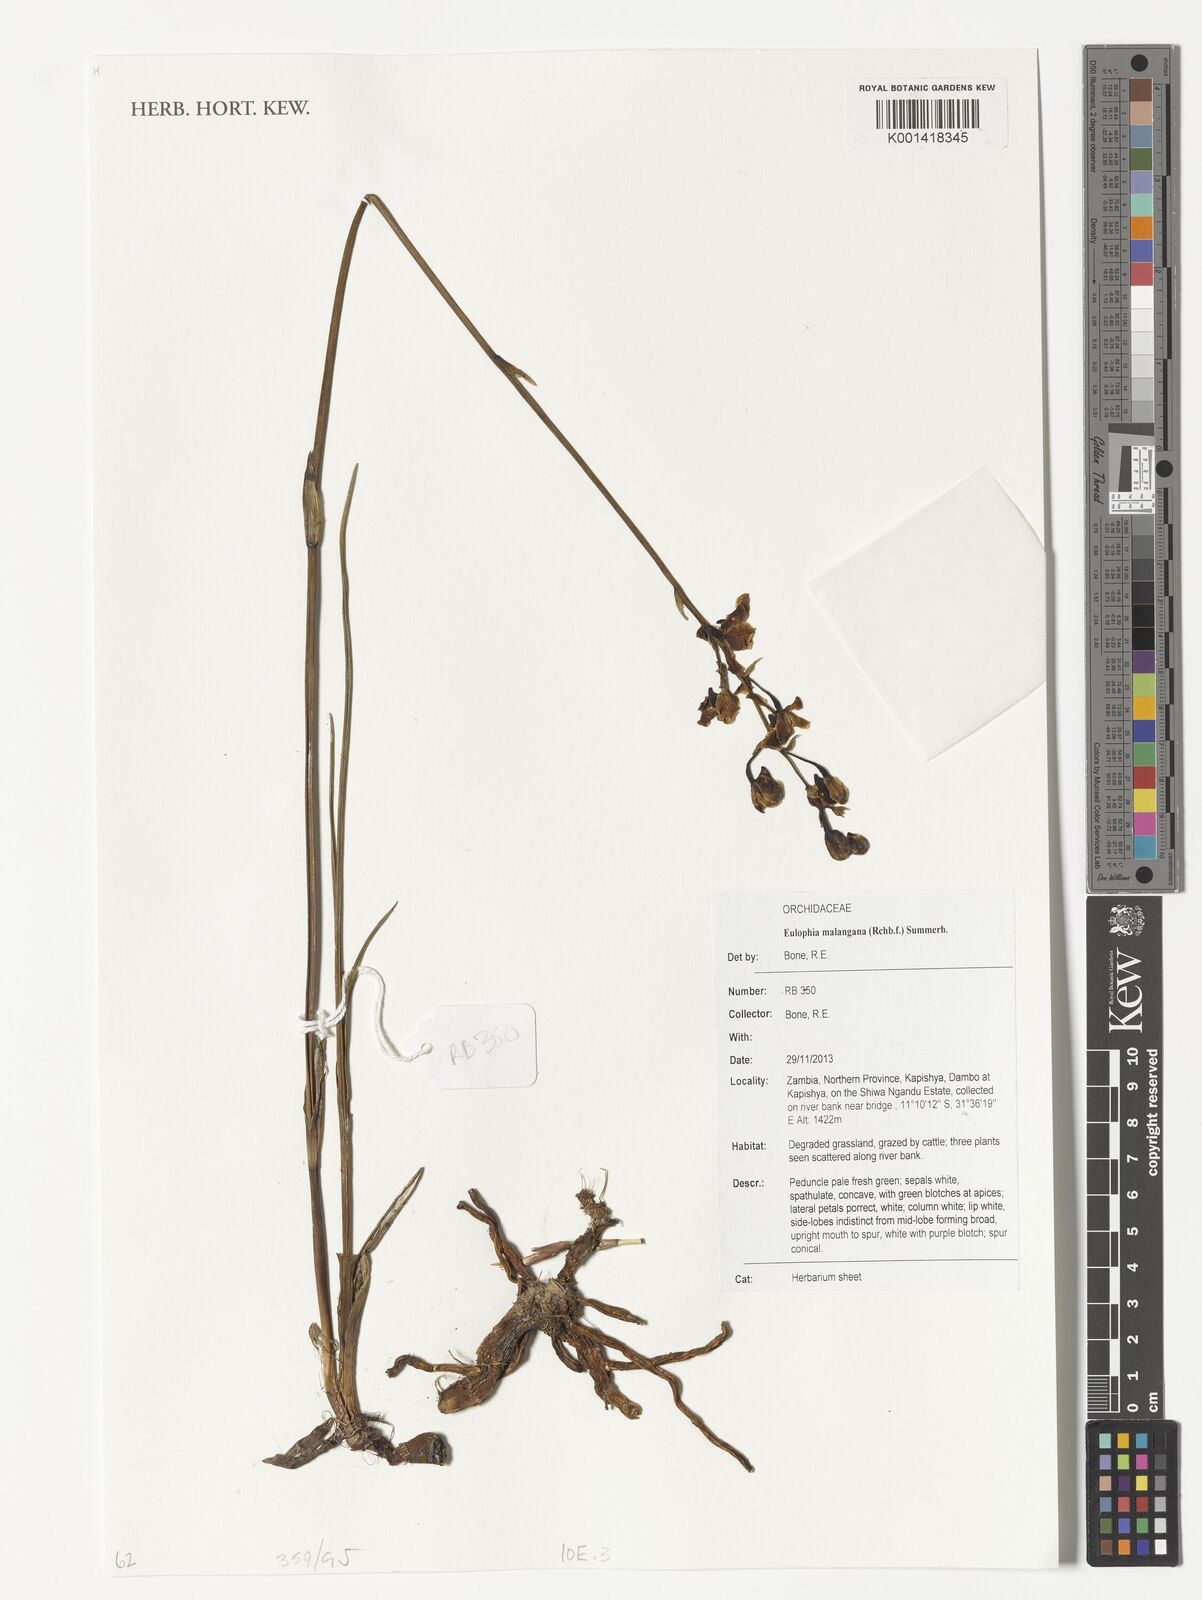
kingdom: Plantae
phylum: Tracheophyta
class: Liliopsida
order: Asparagales
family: Orchidaceae
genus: Eulophia
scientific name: Eulophia malangana
